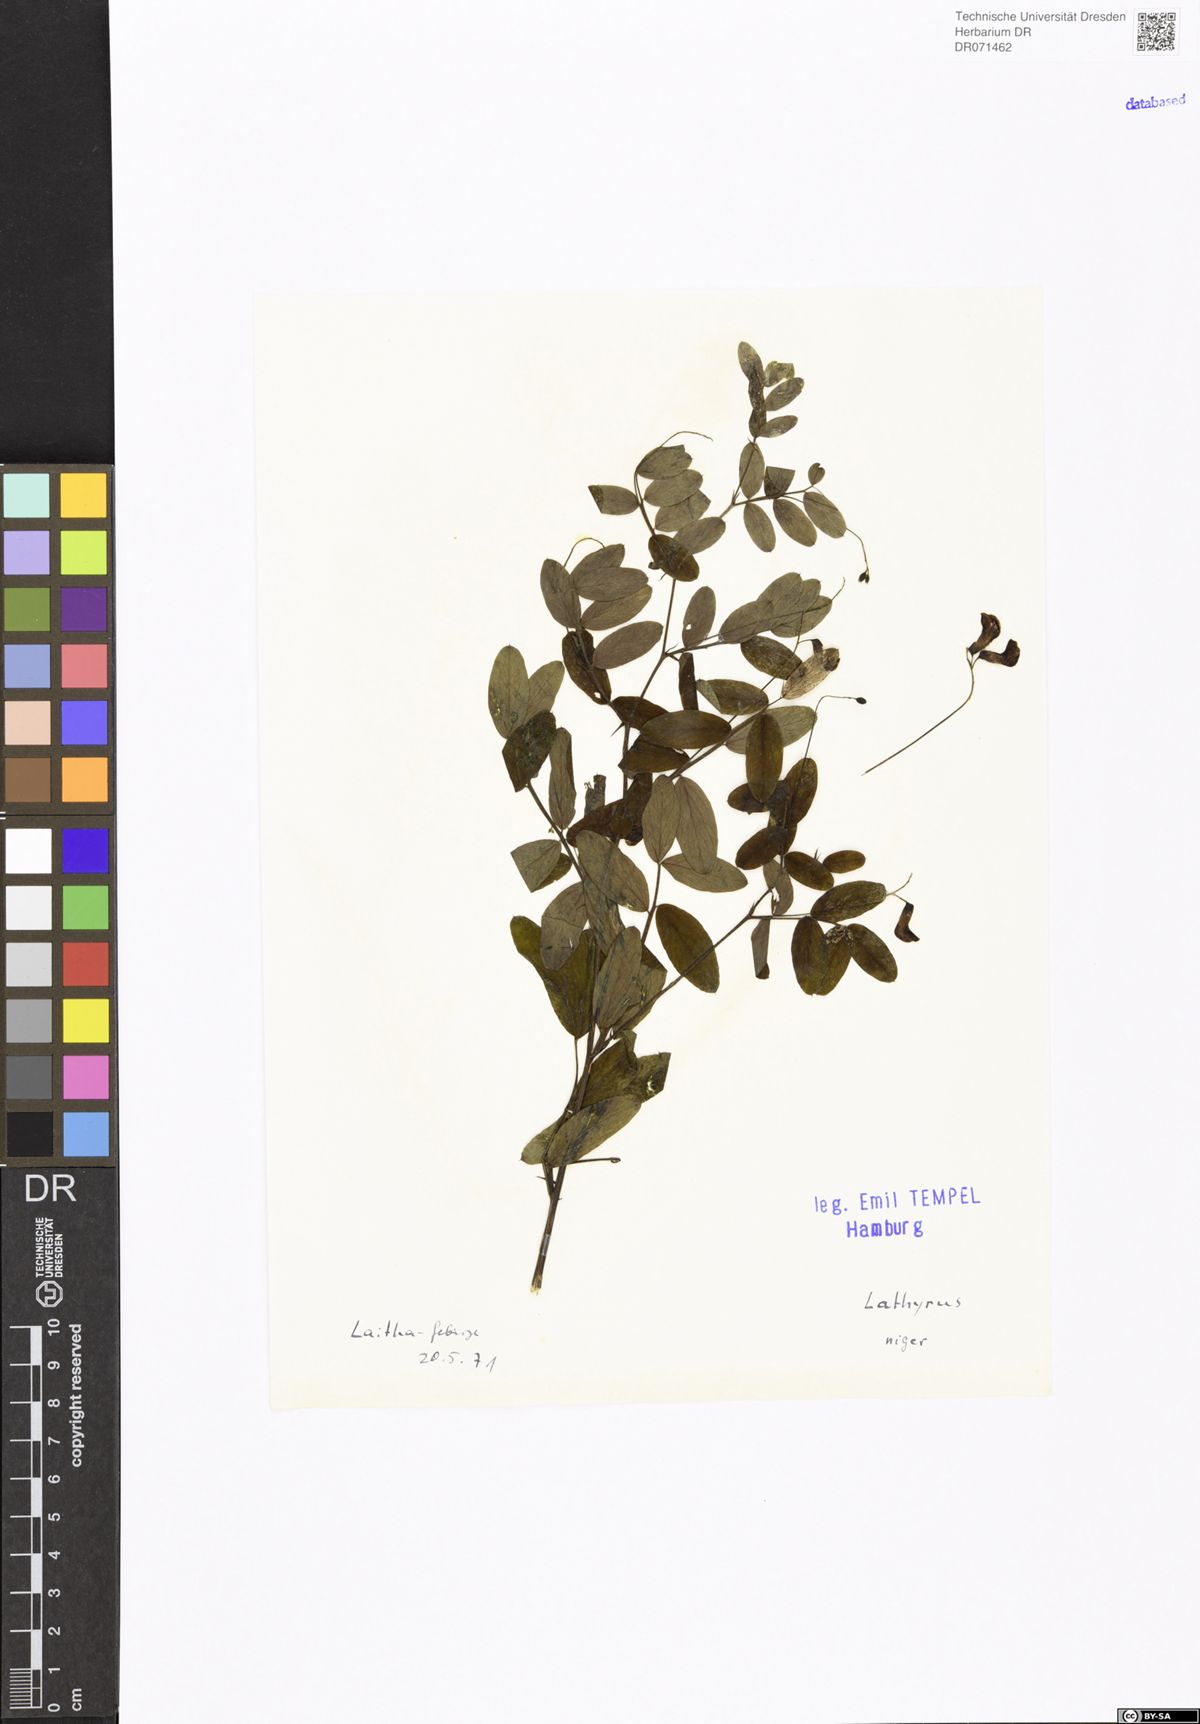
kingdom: Plantae
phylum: Tracheophyta
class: Magnoliopsida
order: Fabales
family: Fabaceae
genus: Lathyrus
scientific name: Lathyrus niger
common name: Black pea
